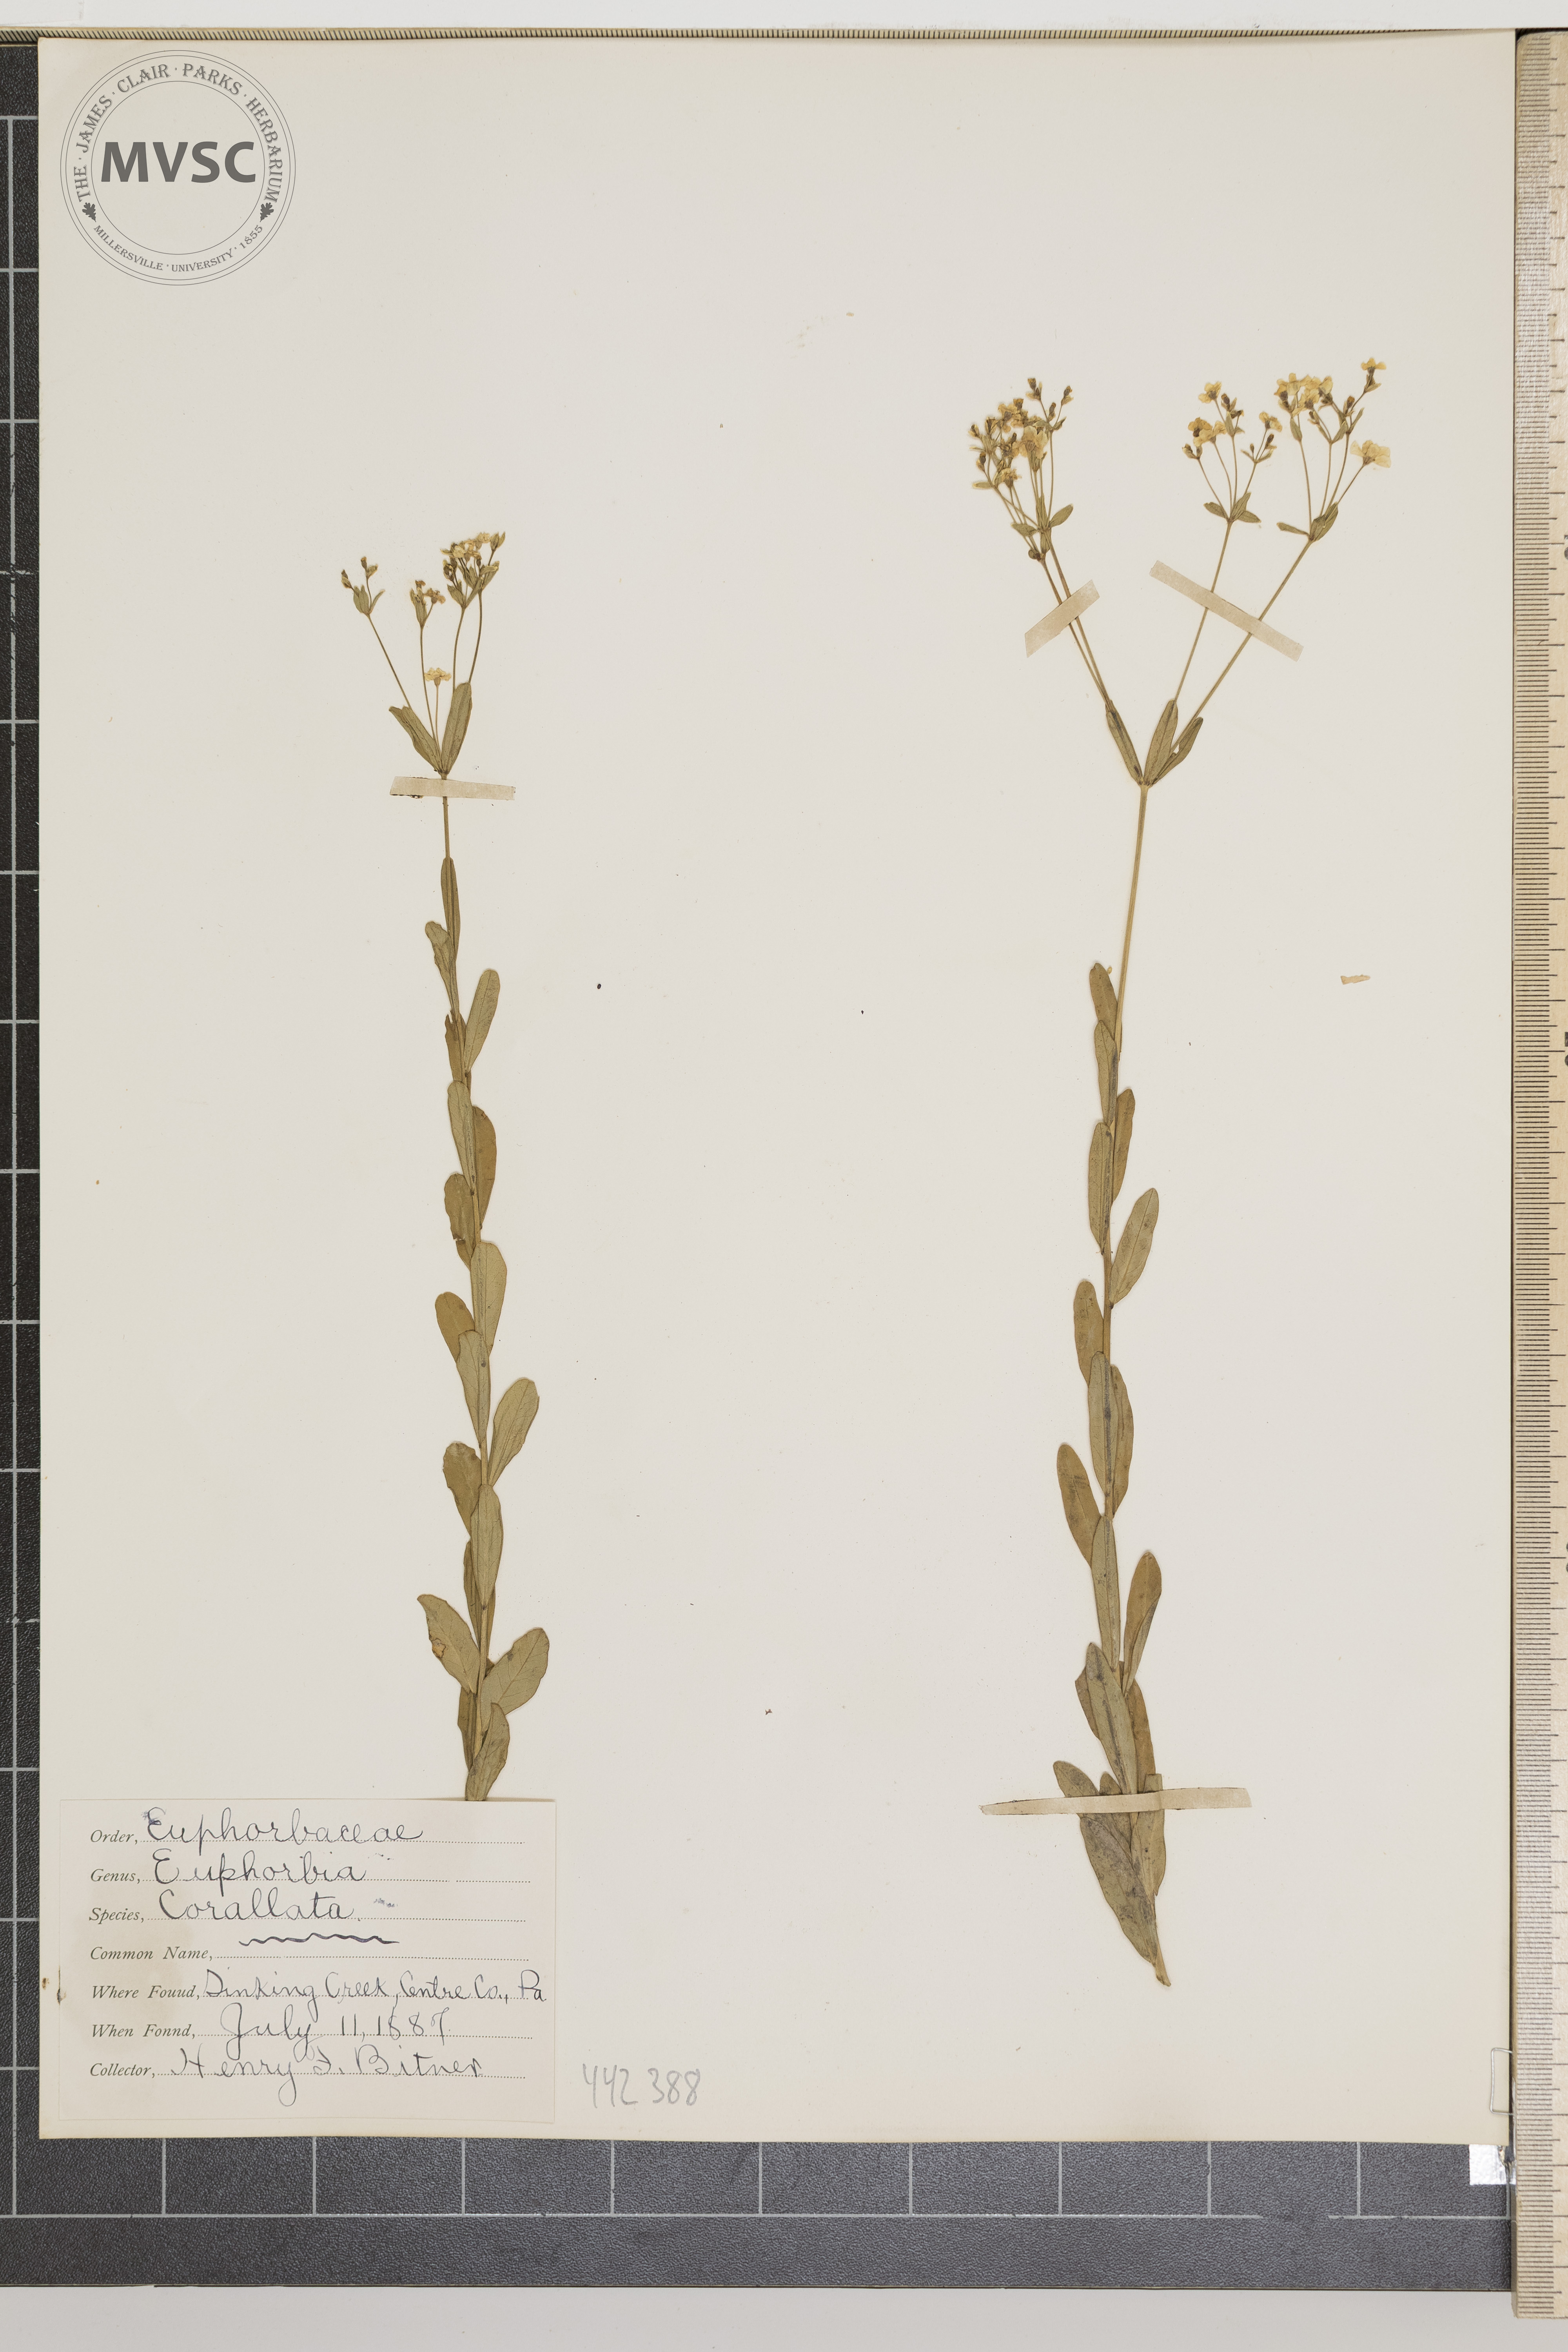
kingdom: Plantae
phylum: Tracheophyta
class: Magnoliopsida
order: Malpighiales
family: Euphorbiaceae
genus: Euphorbia
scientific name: Euphorbia corollata
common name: Flowering spurge
